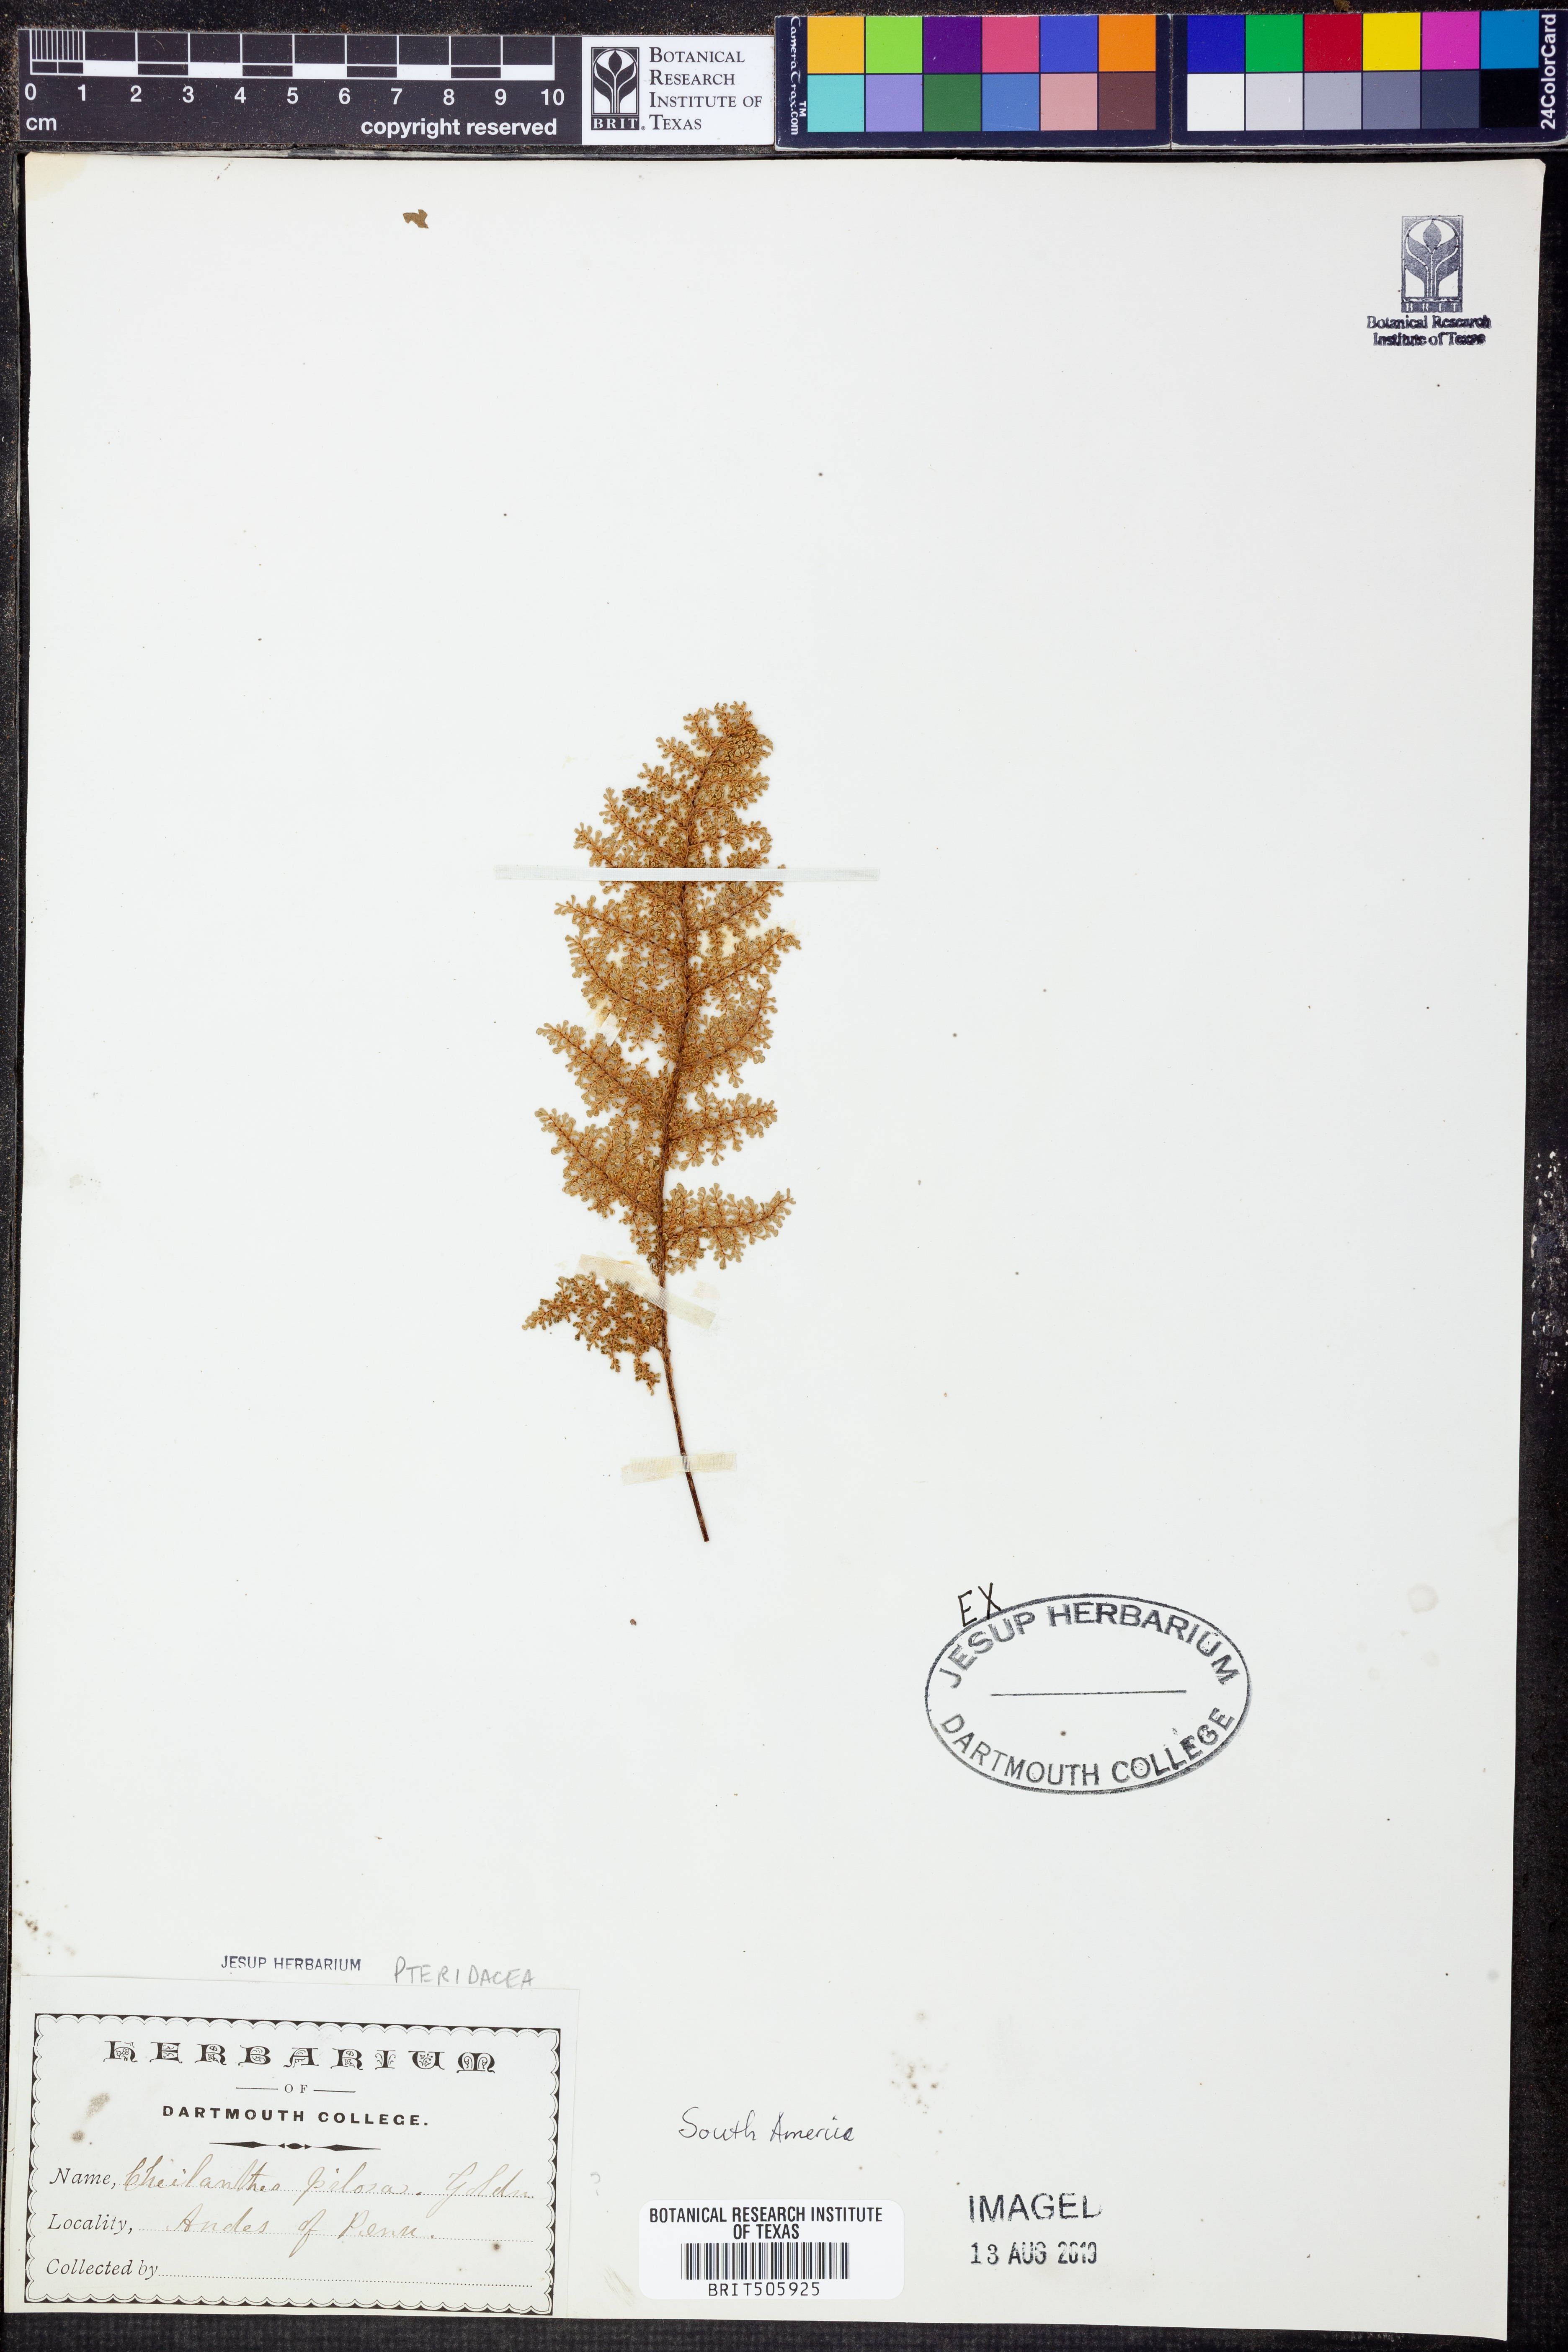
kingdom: Plantae
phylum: Tracheophyta
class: Polypodiopsida
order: Polypodiales
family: Pteridaceae
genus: Cheilanthes
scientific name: Cheilanthes pilosa
